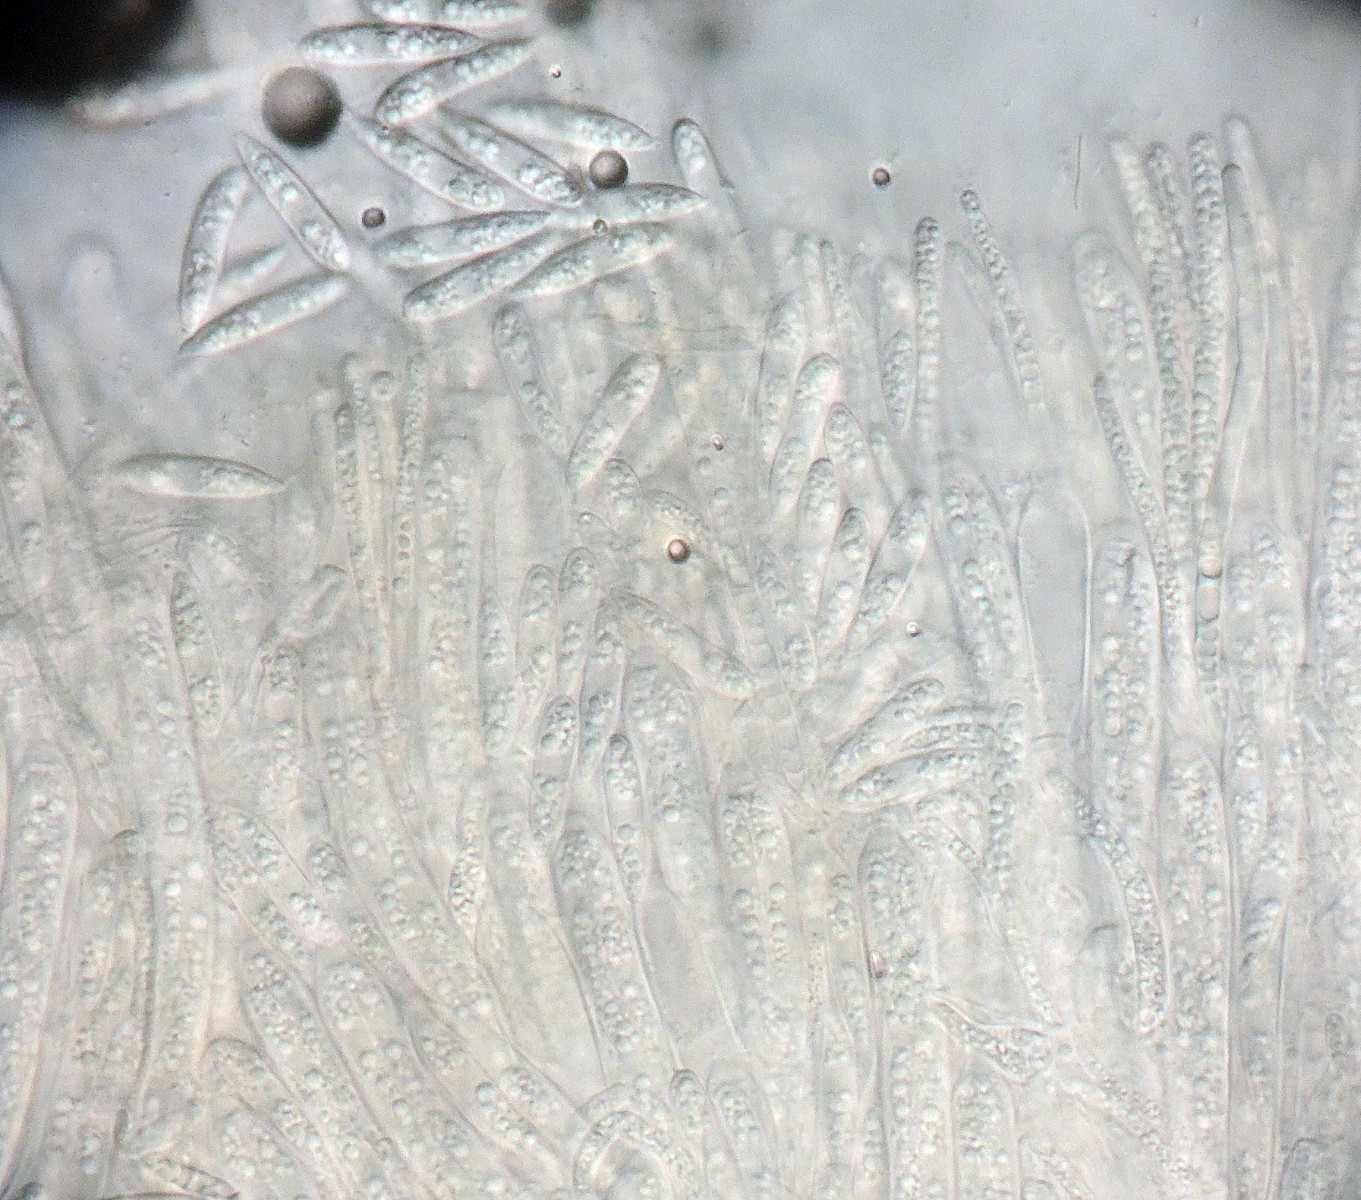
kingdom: Fungi
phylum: Ascomycota
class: Leotiomycetes
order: Helotiales
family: Helotiaceae
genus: Hymenoscyphus
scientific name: Hymenoscyphus fructigenus
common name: frugt-stilkskive
